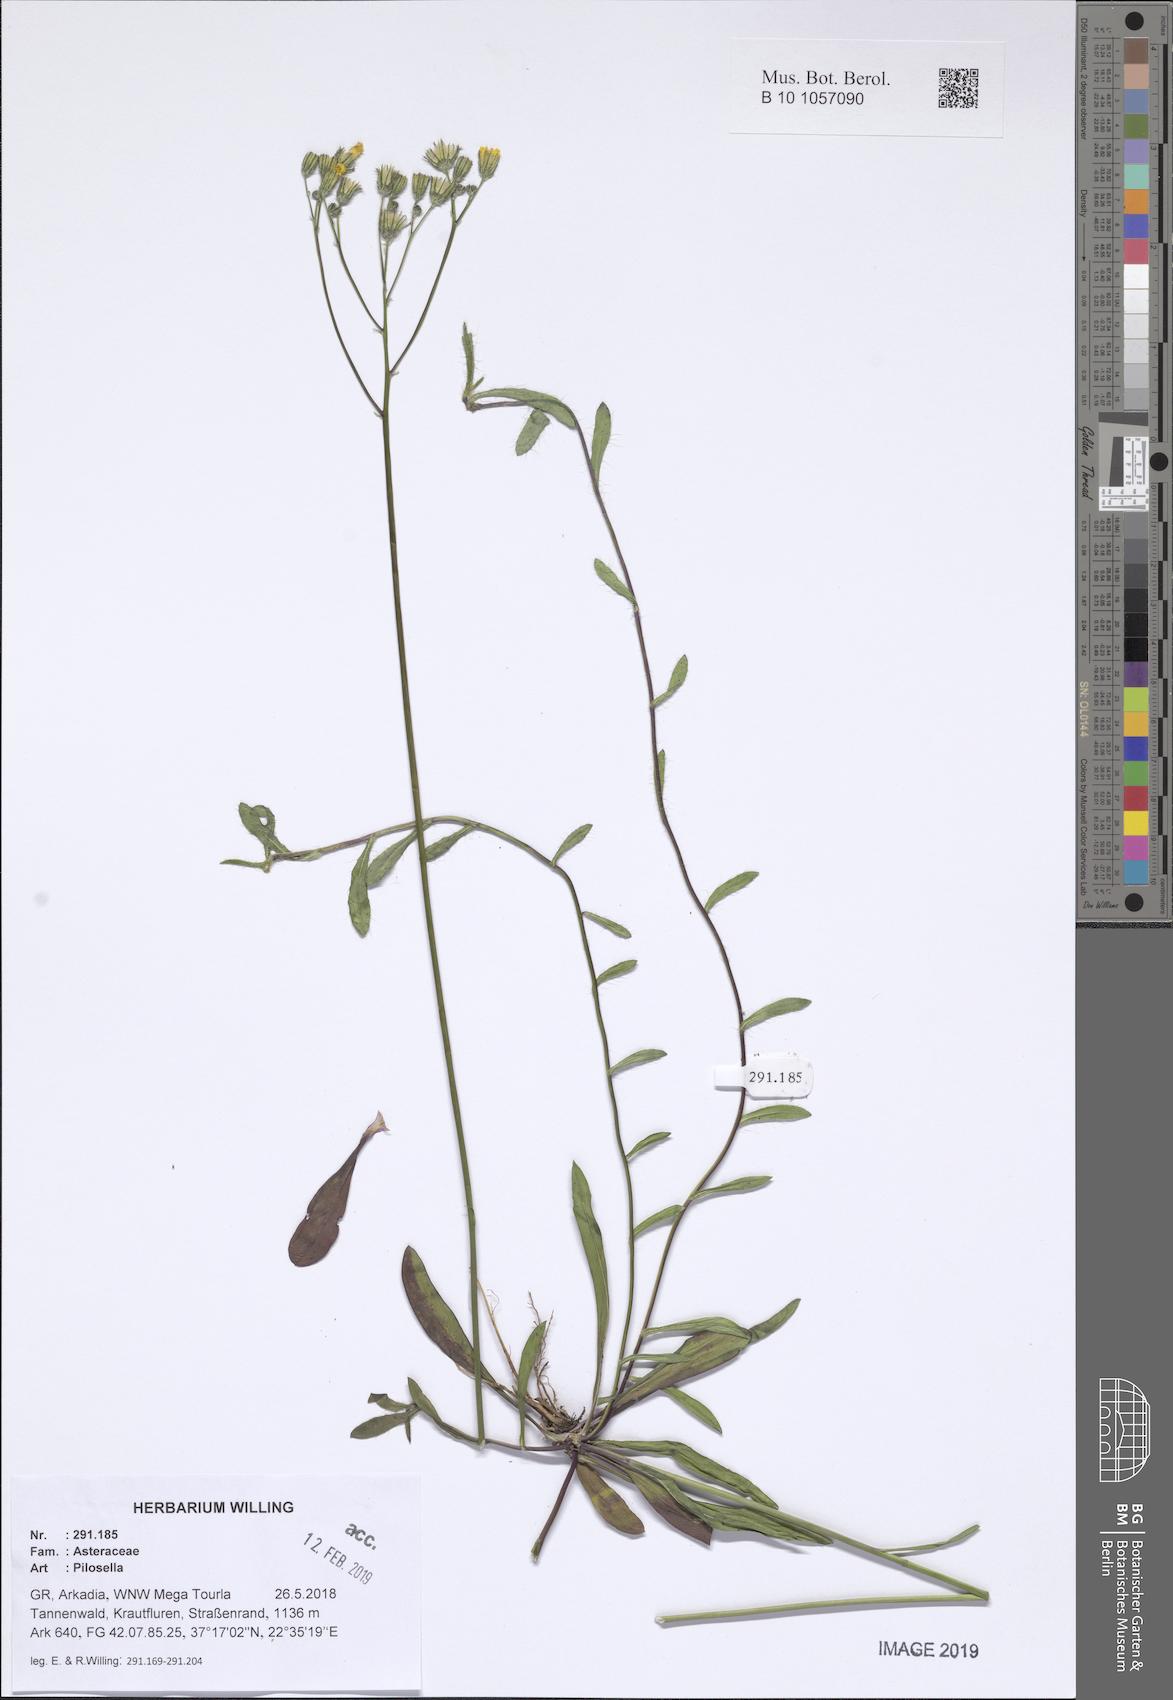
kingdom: Plantae
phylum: Tracheophyta
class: Magnoliopsida
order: Asterales
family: Asteraceae
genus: Pilosella
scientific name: Pilosella
